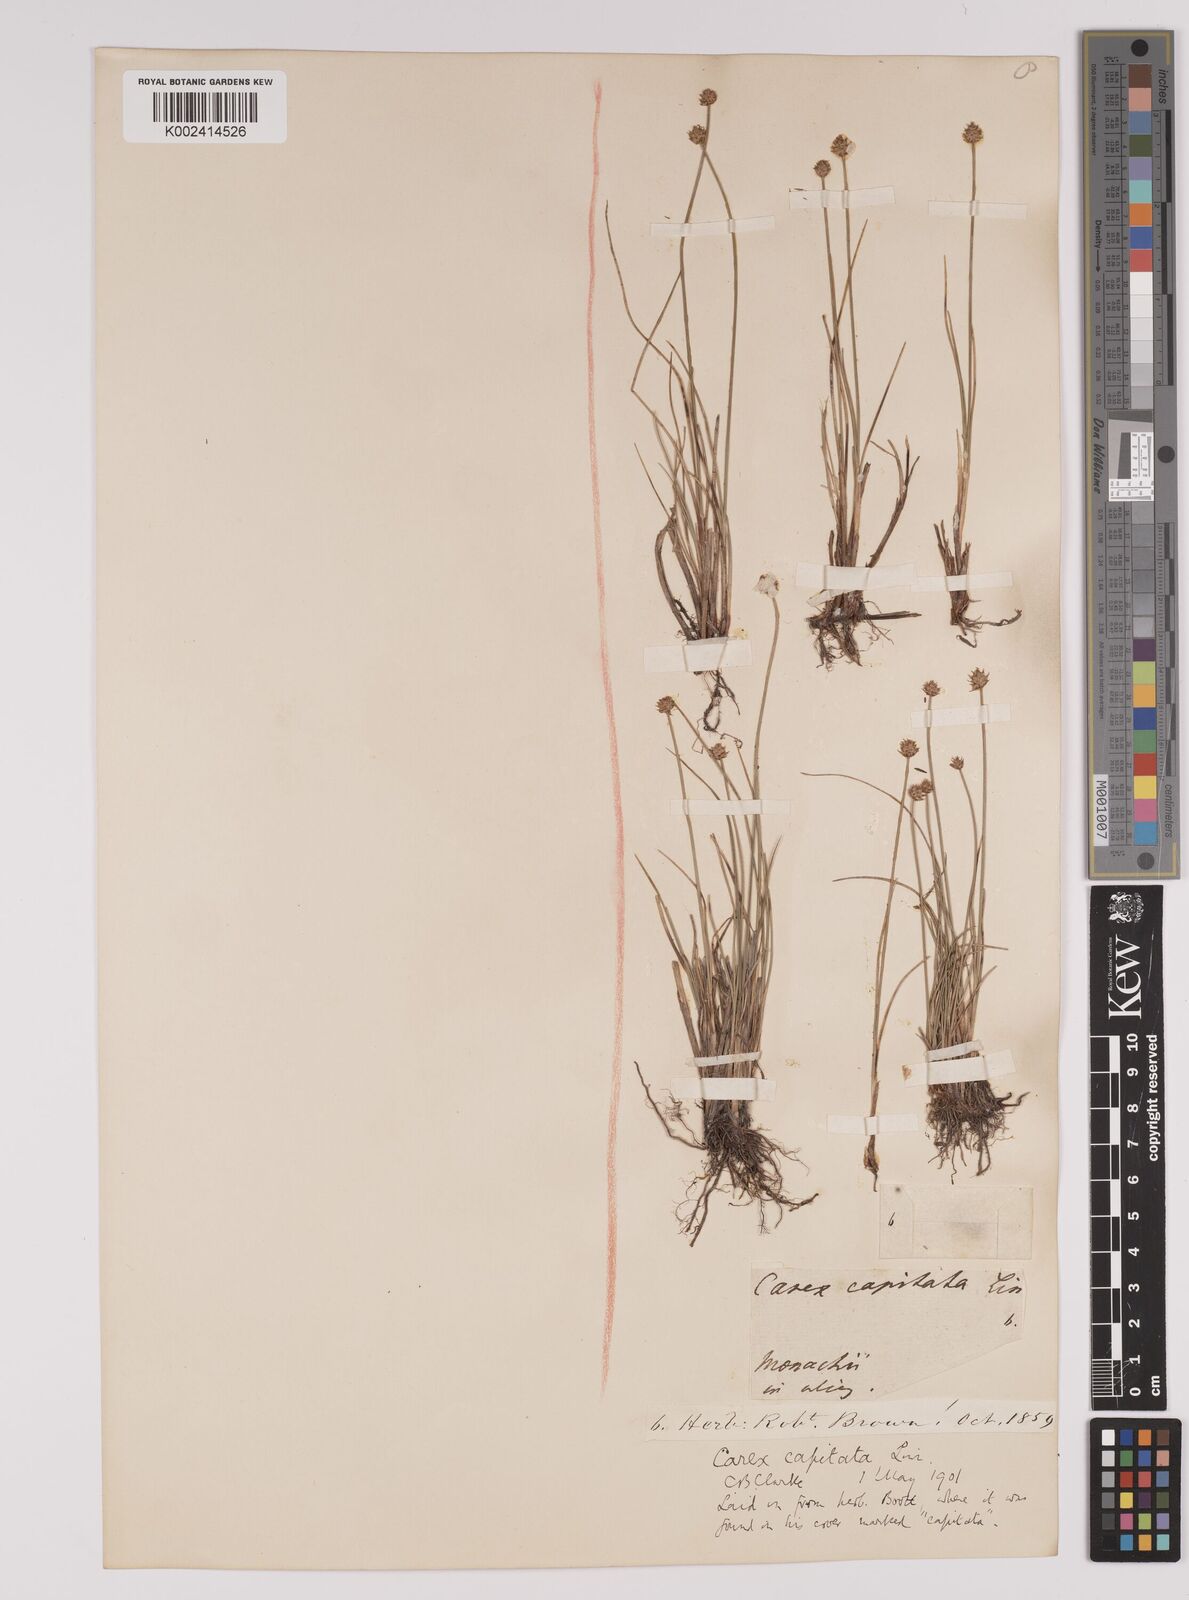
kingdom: Plantae
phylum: Tracheophyta
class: Liliopsida
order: Poales
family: Cyperaceae
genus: Carex
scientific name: Carex capitata
